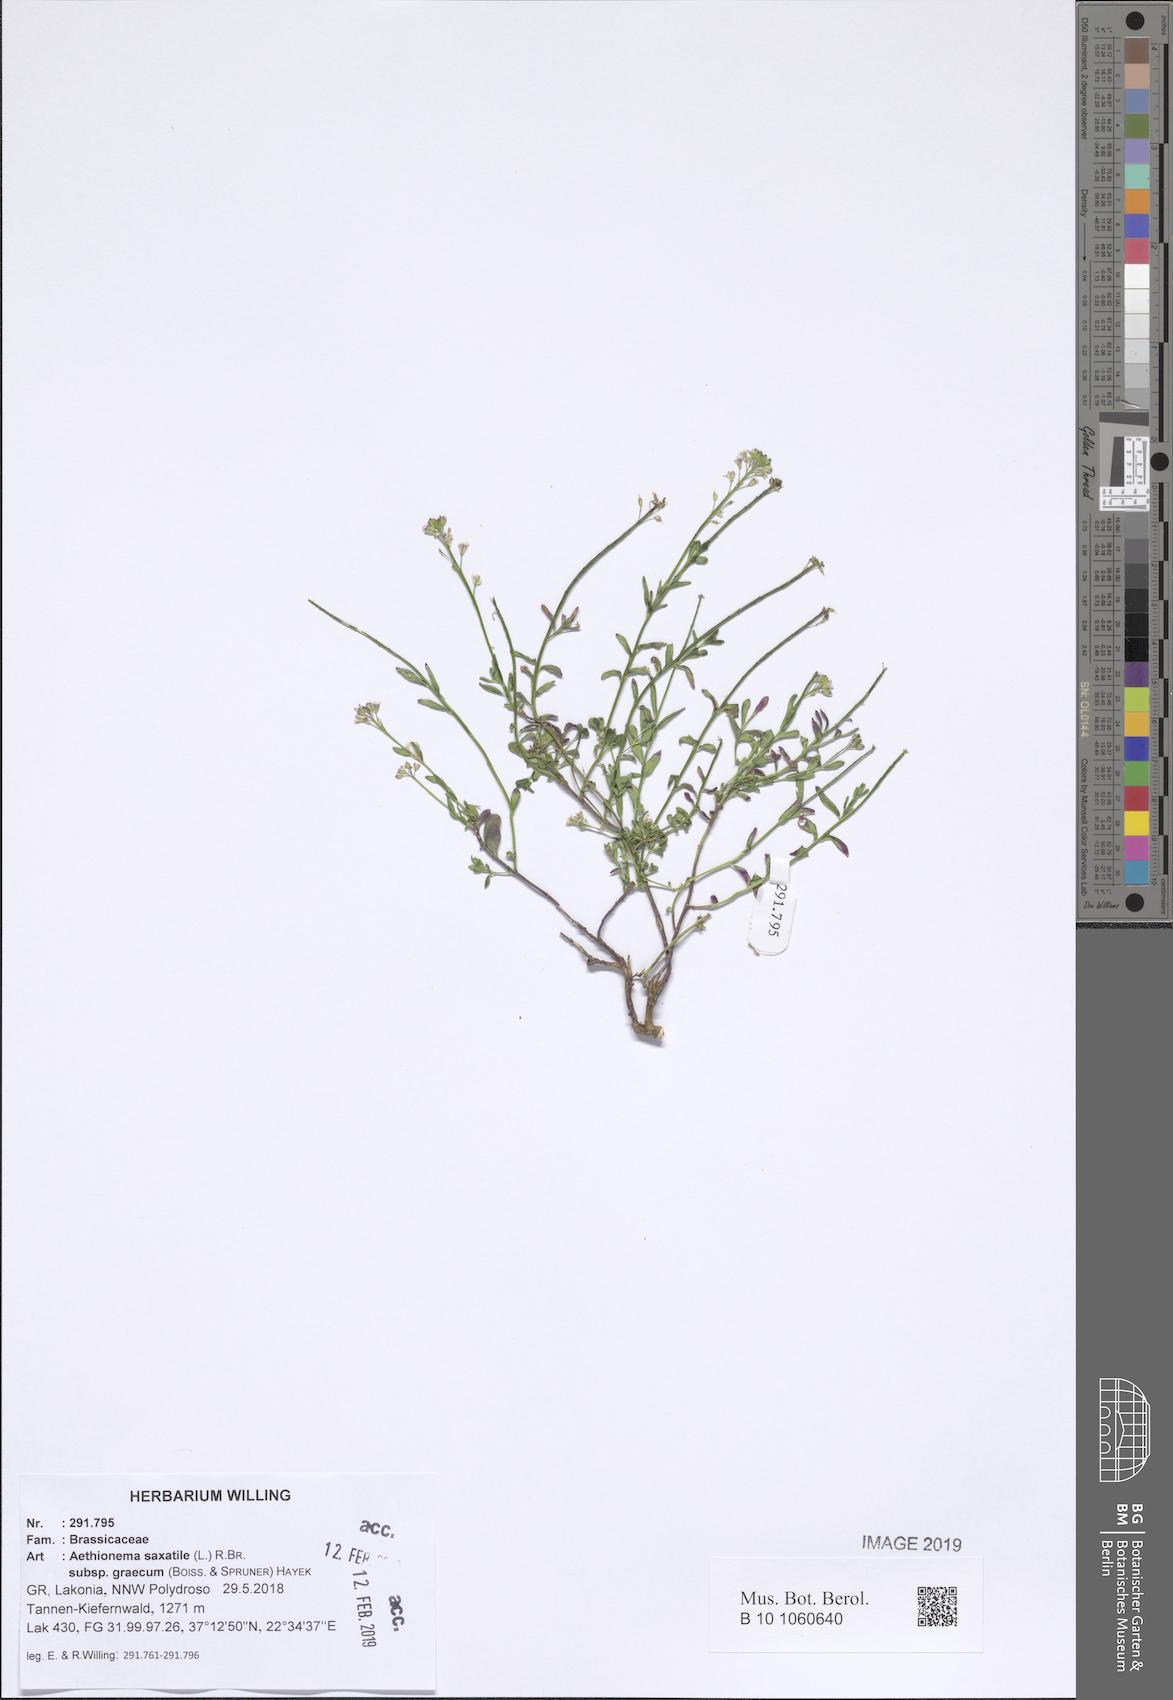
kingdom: Plantae
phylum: Tracheophyta
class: Magnoliopsida
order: Brassicales
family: Brassicaceae
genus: Aethionema
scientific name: Aethionema saxatile
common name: Burnt candytuft
